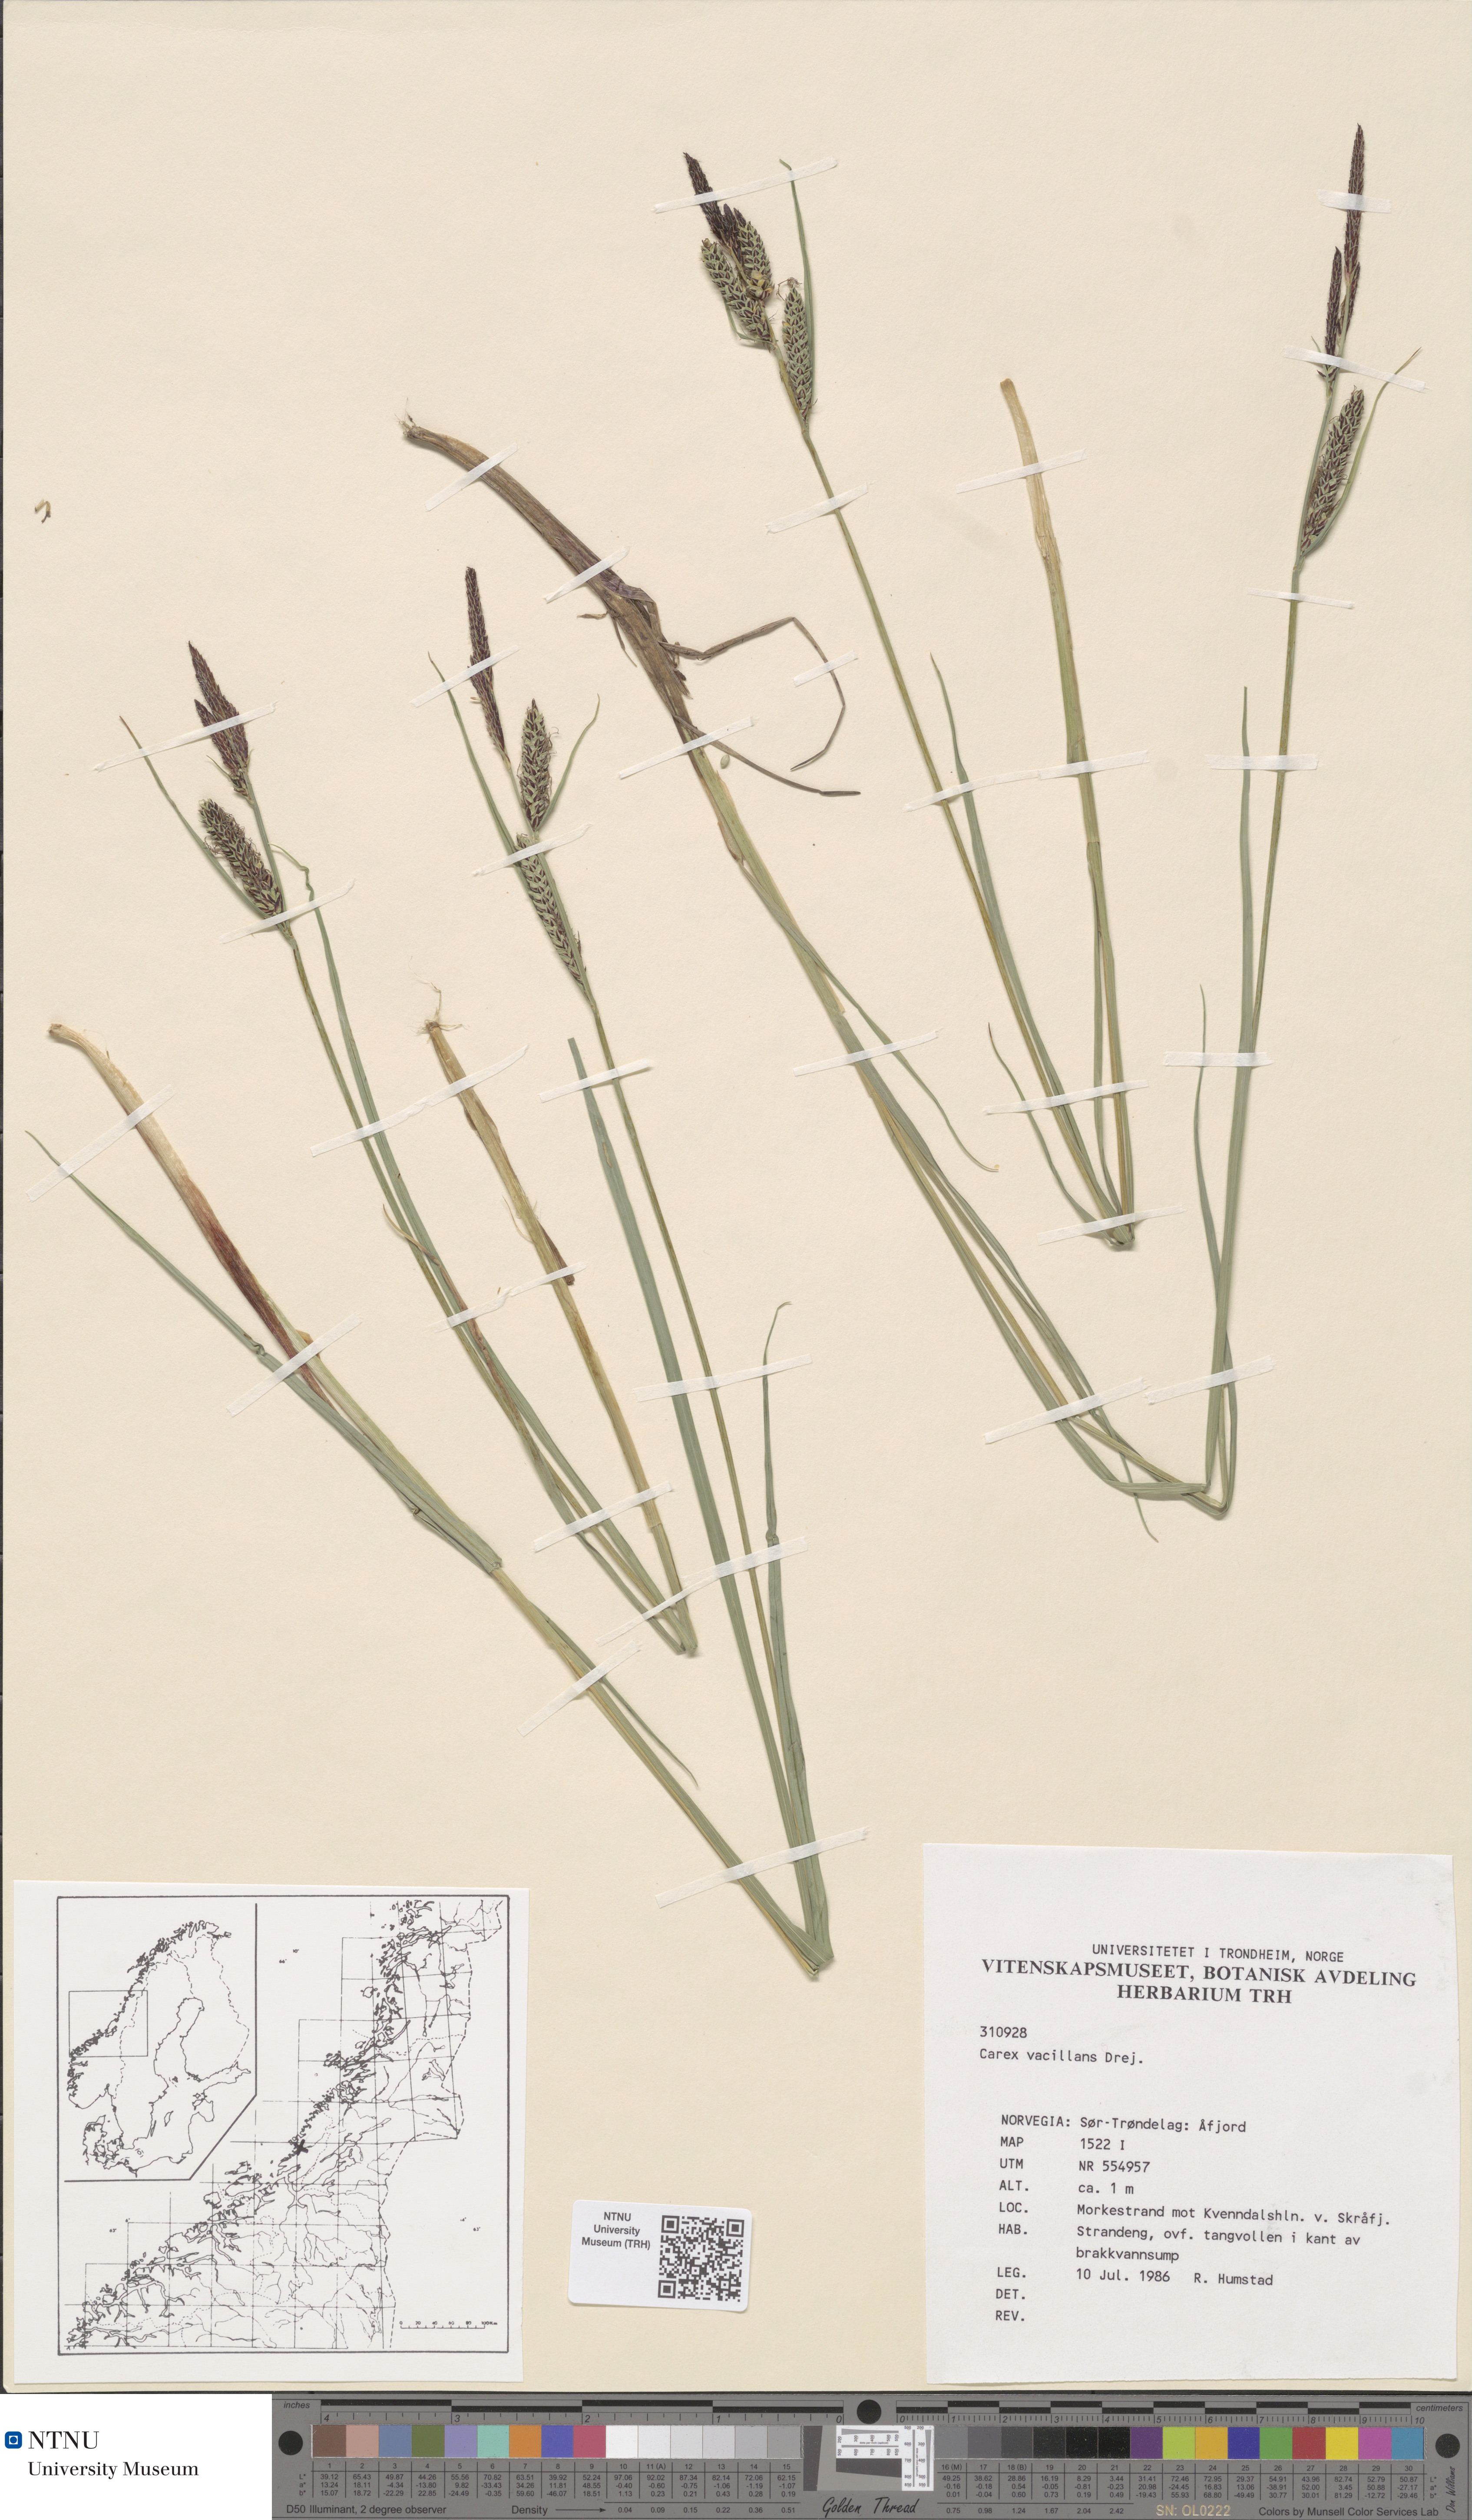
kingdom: Plantae
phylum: Tracheophyta
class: Liliopsida
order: Poales
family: Cyperaceae
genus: Carex
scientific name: Carex vacillans
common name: Sedge
